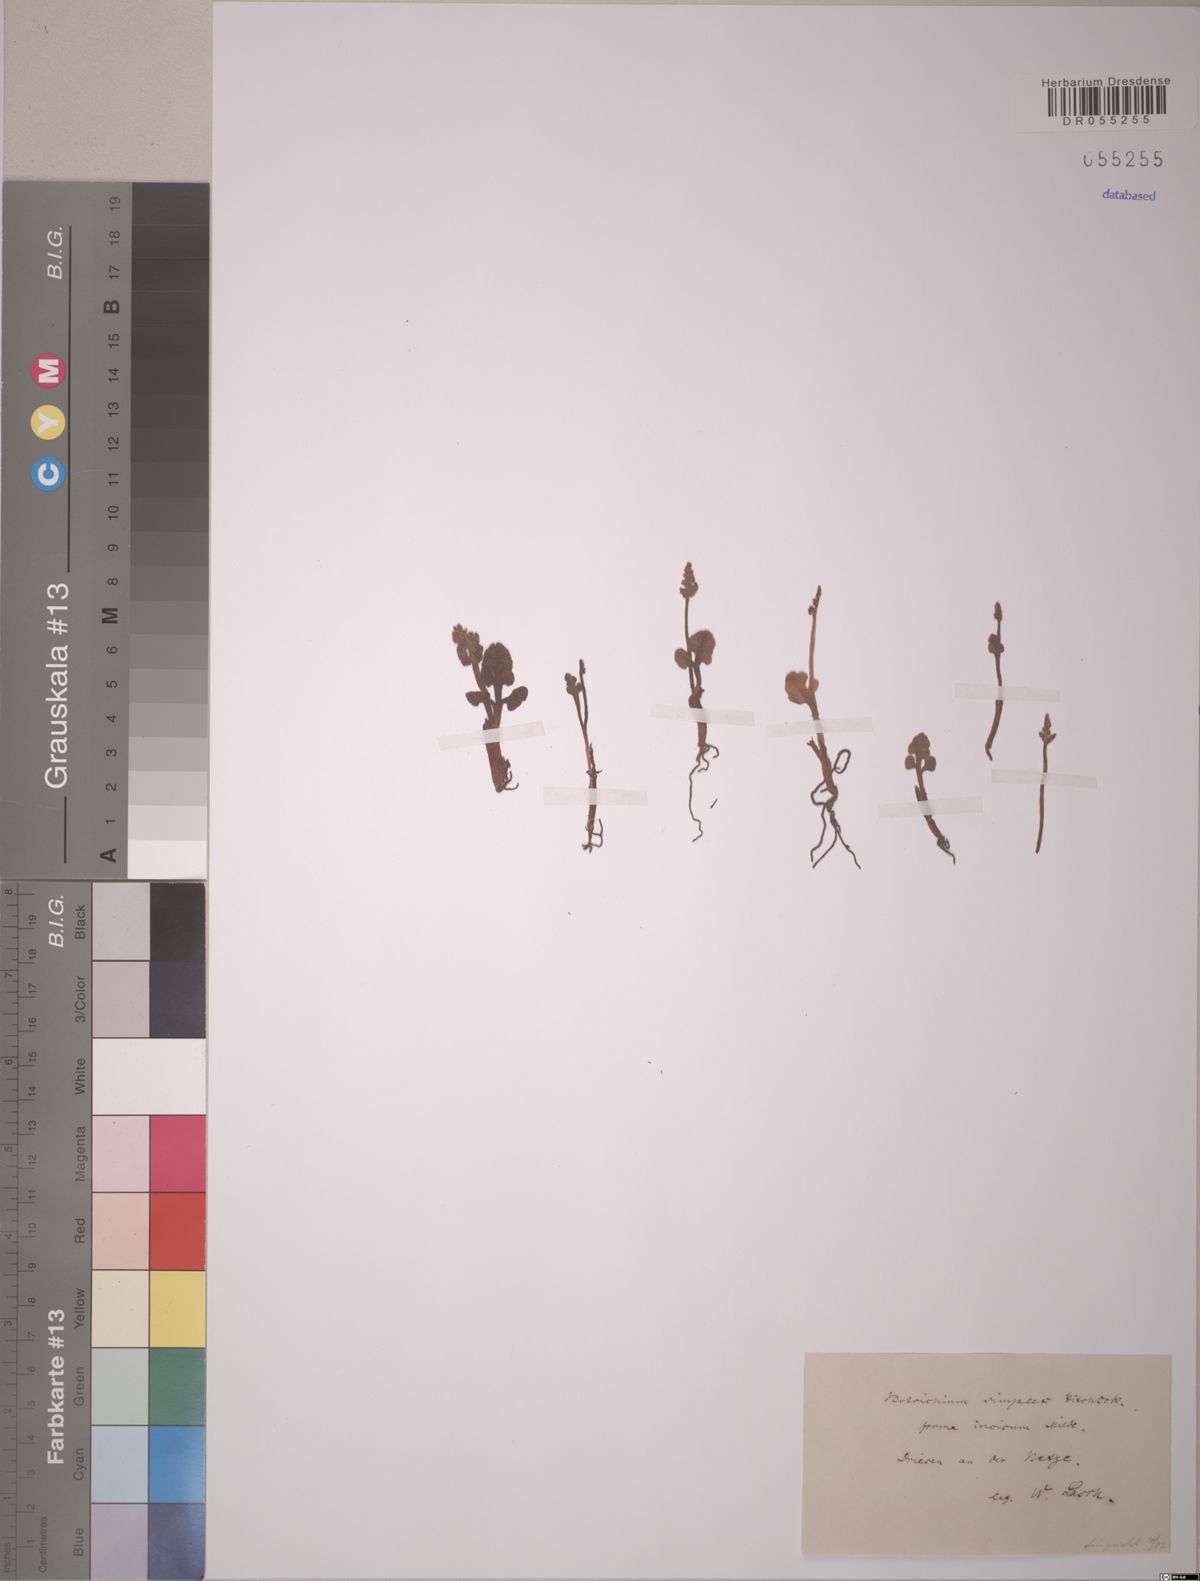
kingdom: Plantae
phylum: Tracheophyta
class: Polypodiopsida
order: Ophioglossales
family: Ophioglossaceae
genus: Botrychium
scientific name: Botrychium simplex
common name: Least moonwort
